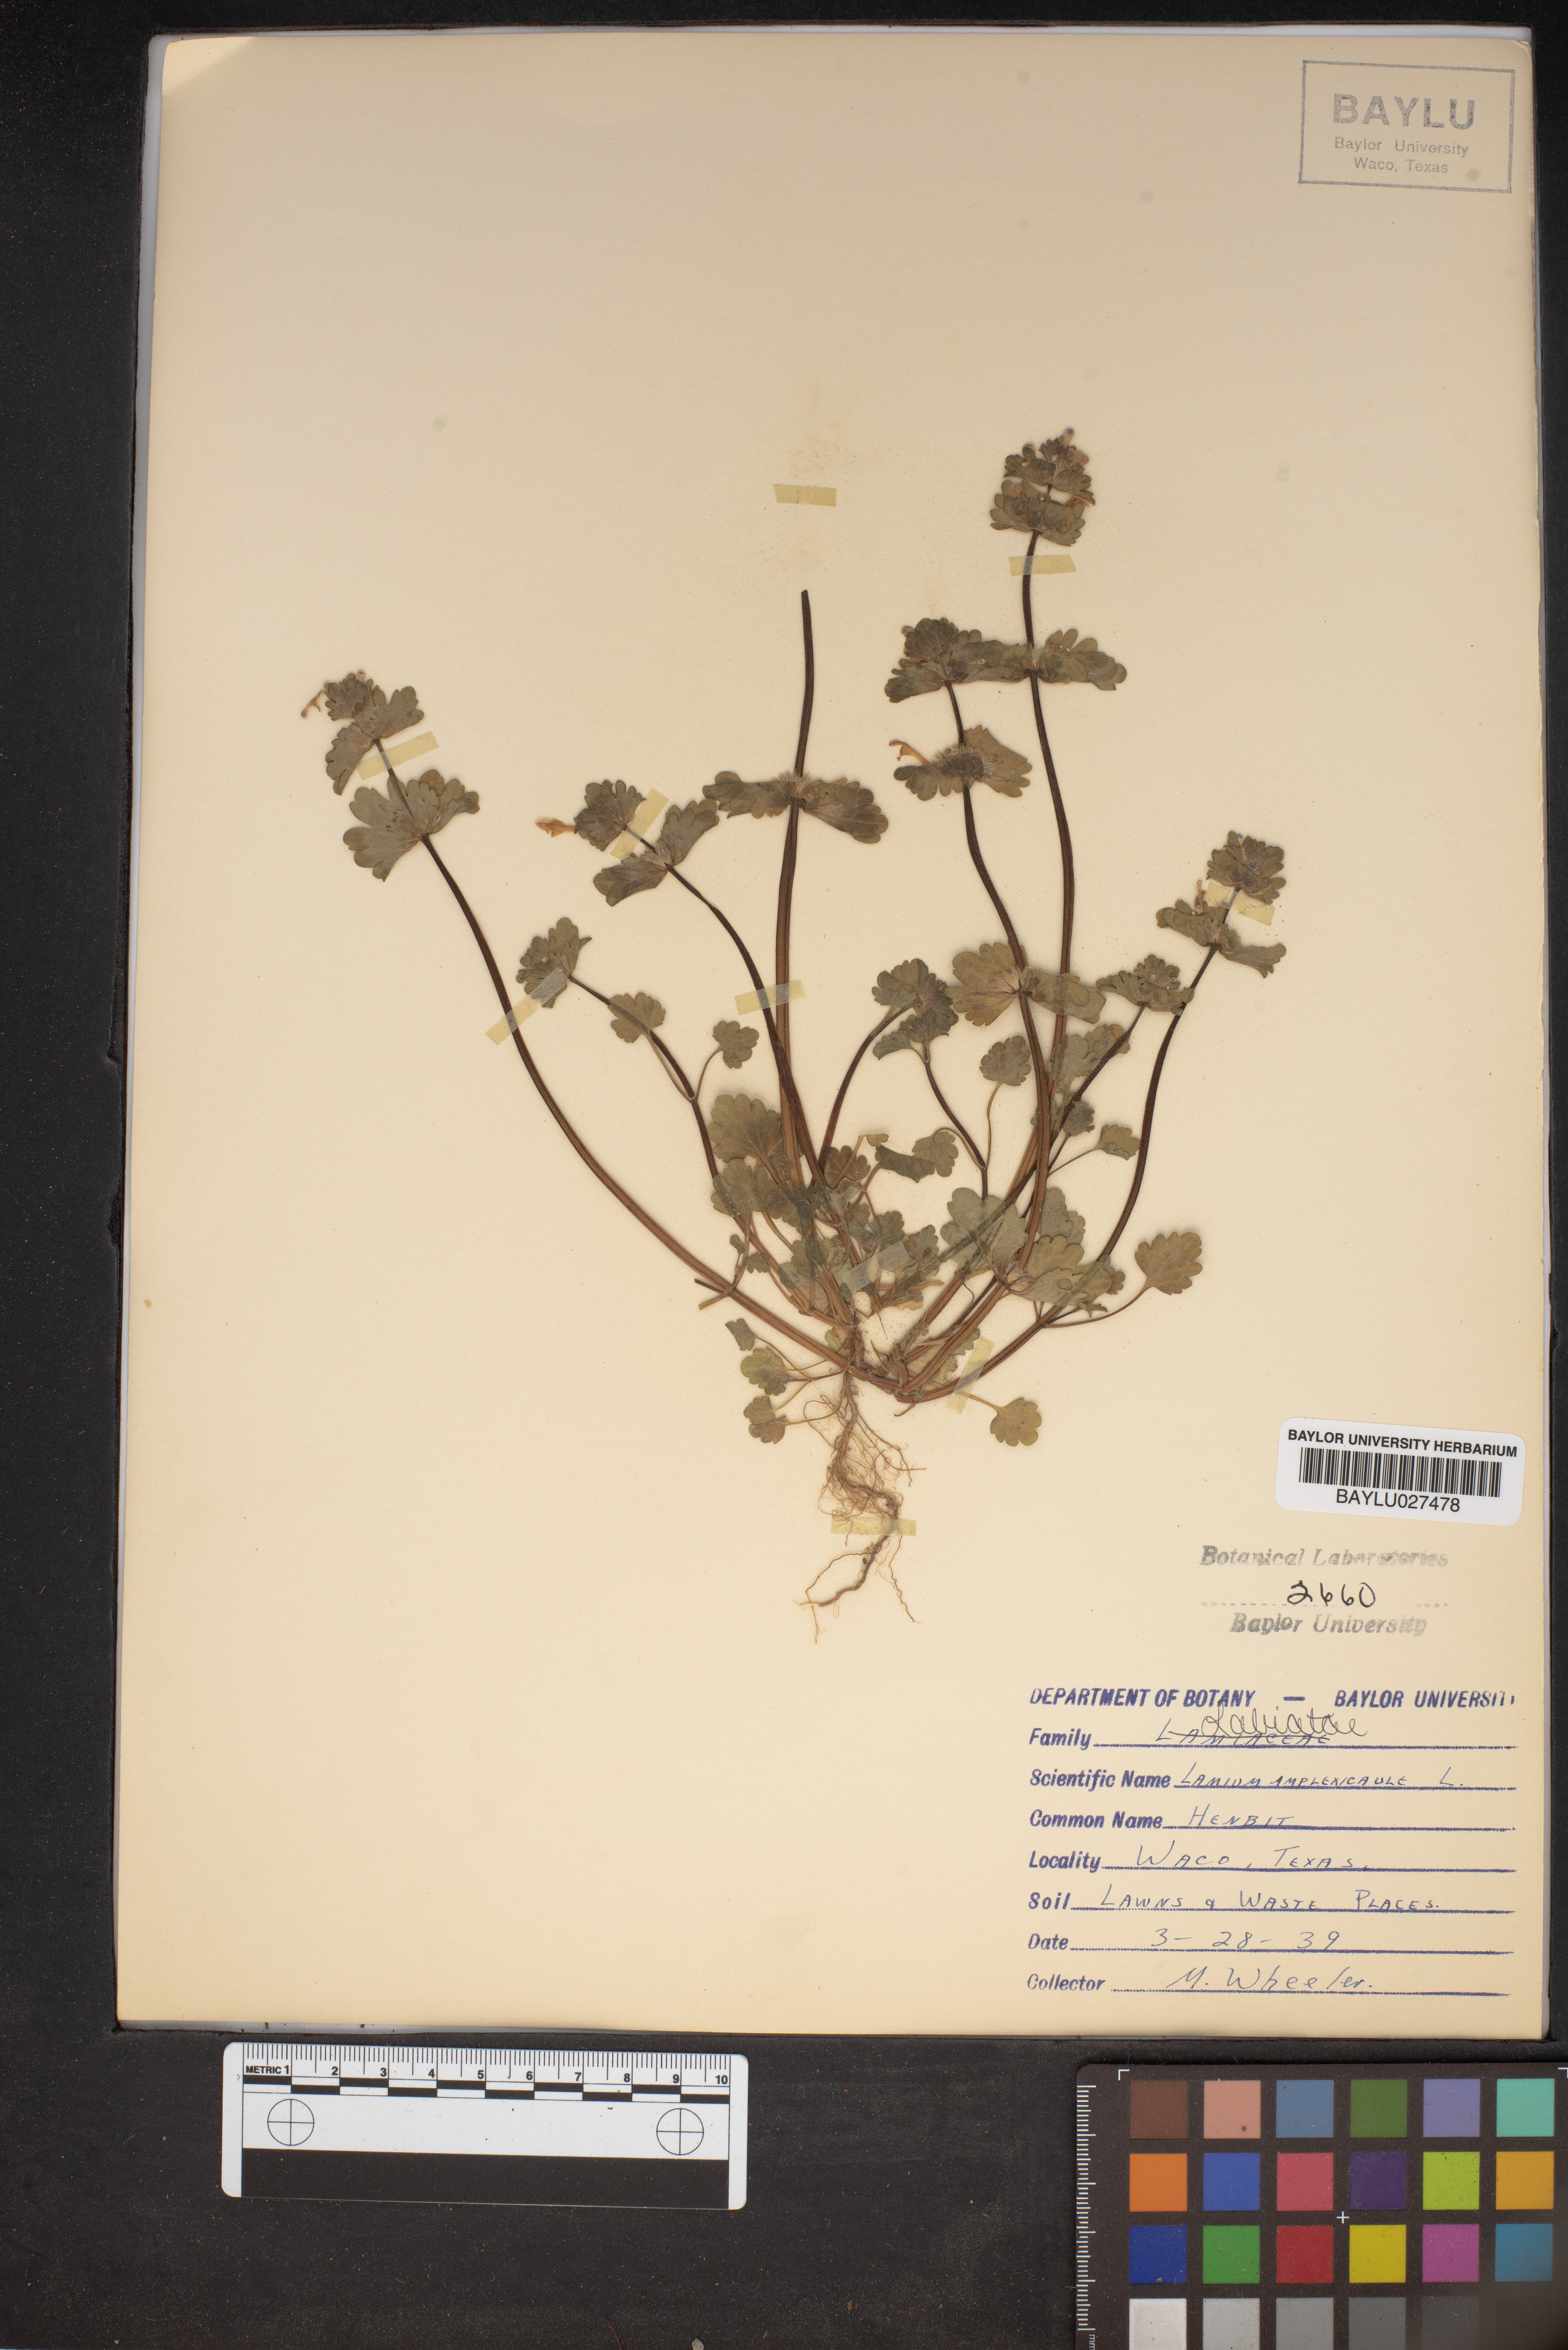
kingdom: Plantae
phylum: Tracheophyta
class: Magnoliopsida
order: Lamiales
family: Lamiaceae
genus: Lamium
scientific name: Lamium amplexicaule
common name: Henbit dead-nettle
